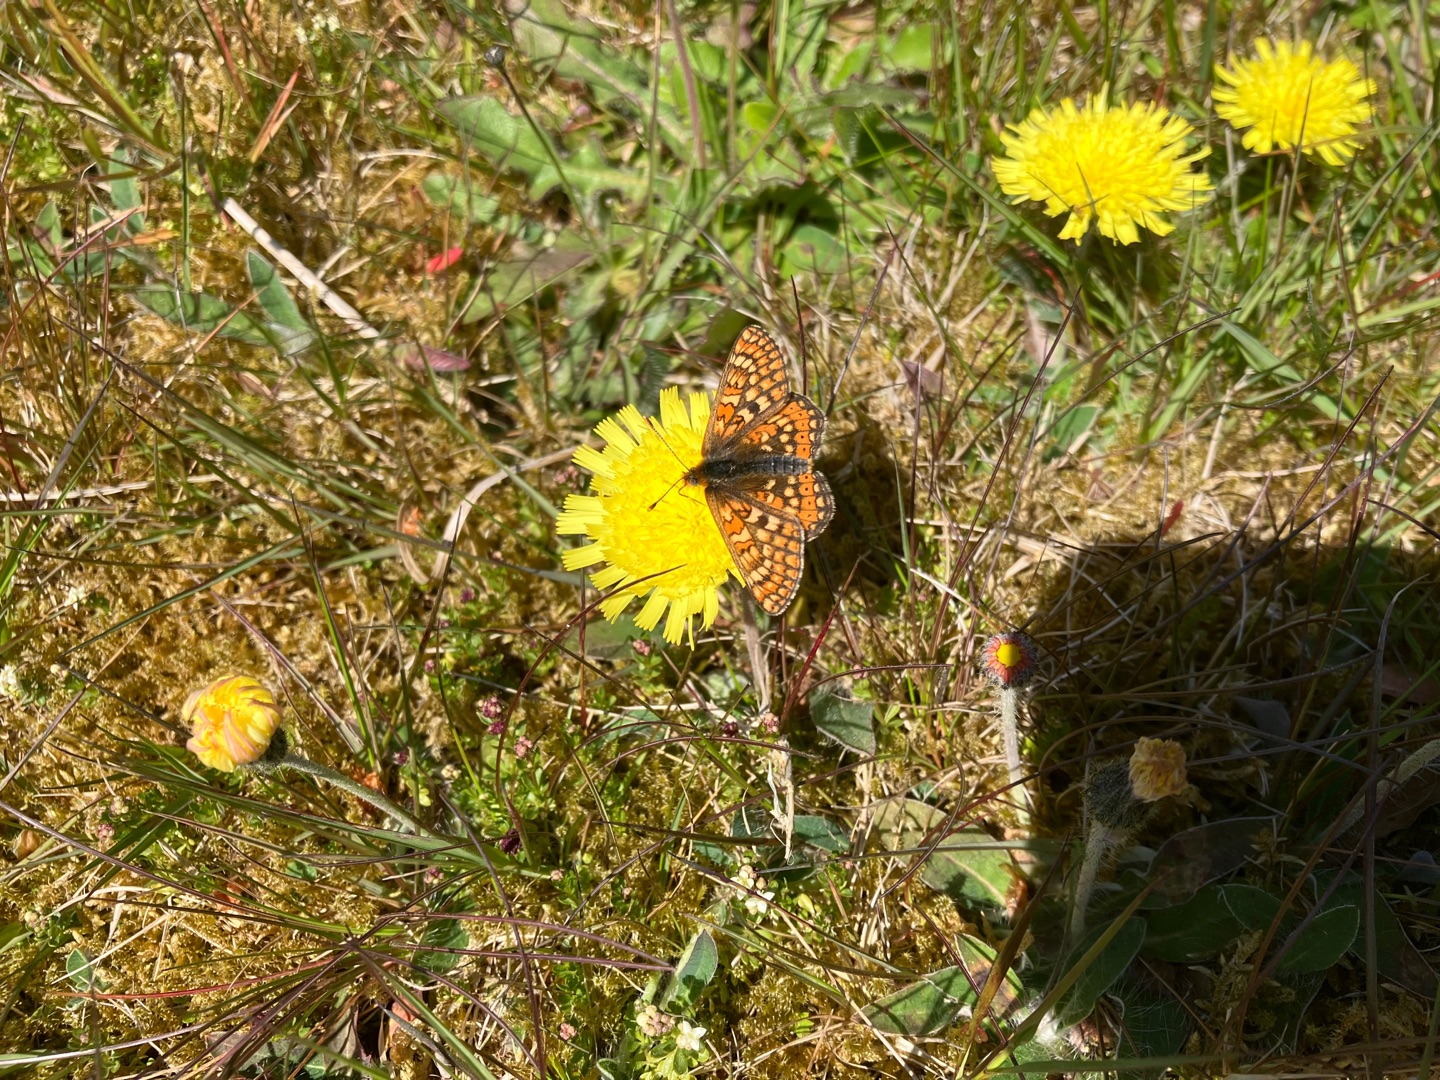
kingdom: Animalia
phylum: Arthropoda
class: Insecta
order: Lepidoptera
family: Nymphalidae
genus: Euphydryas
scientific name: Euphydryas aurinia
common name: Hedepletvinge
